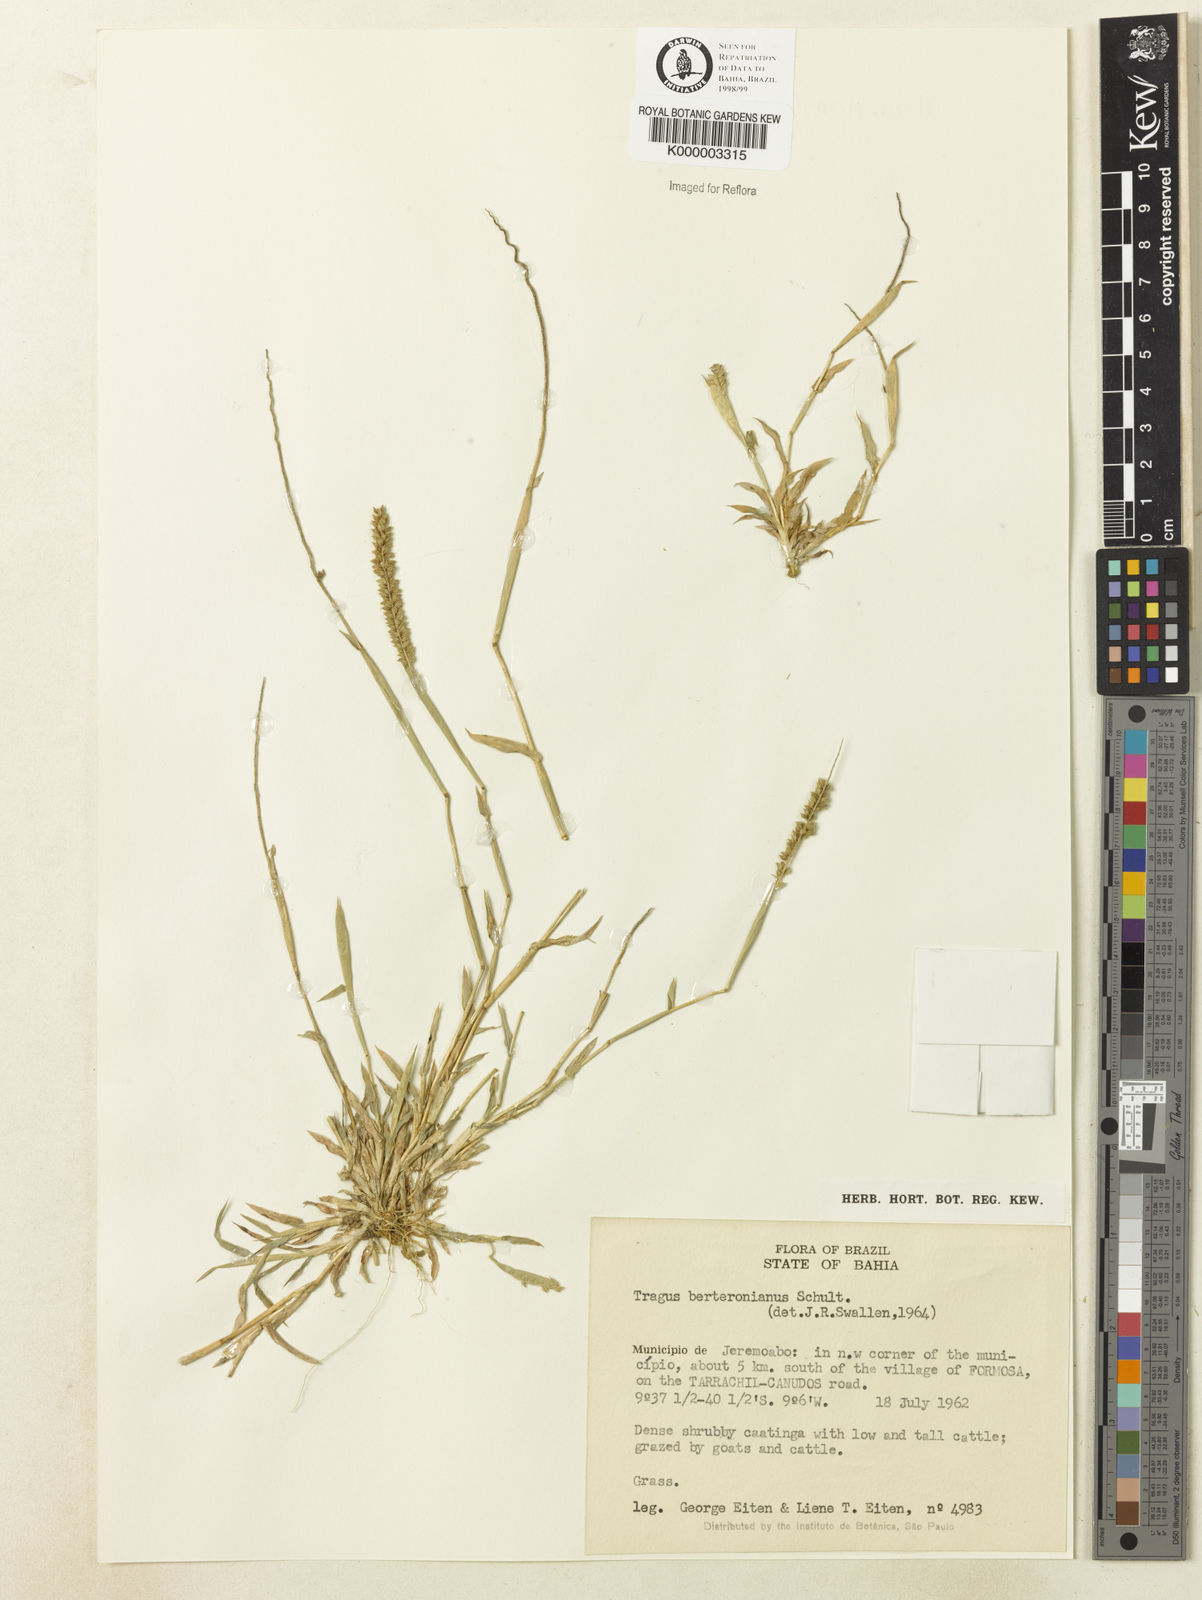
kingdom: Plantae
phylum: Tracheophyta
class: Liliopsida
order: Poales
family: Poaceae
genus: Tragus
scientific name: Tragus berteronianus
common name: African bur-grass
